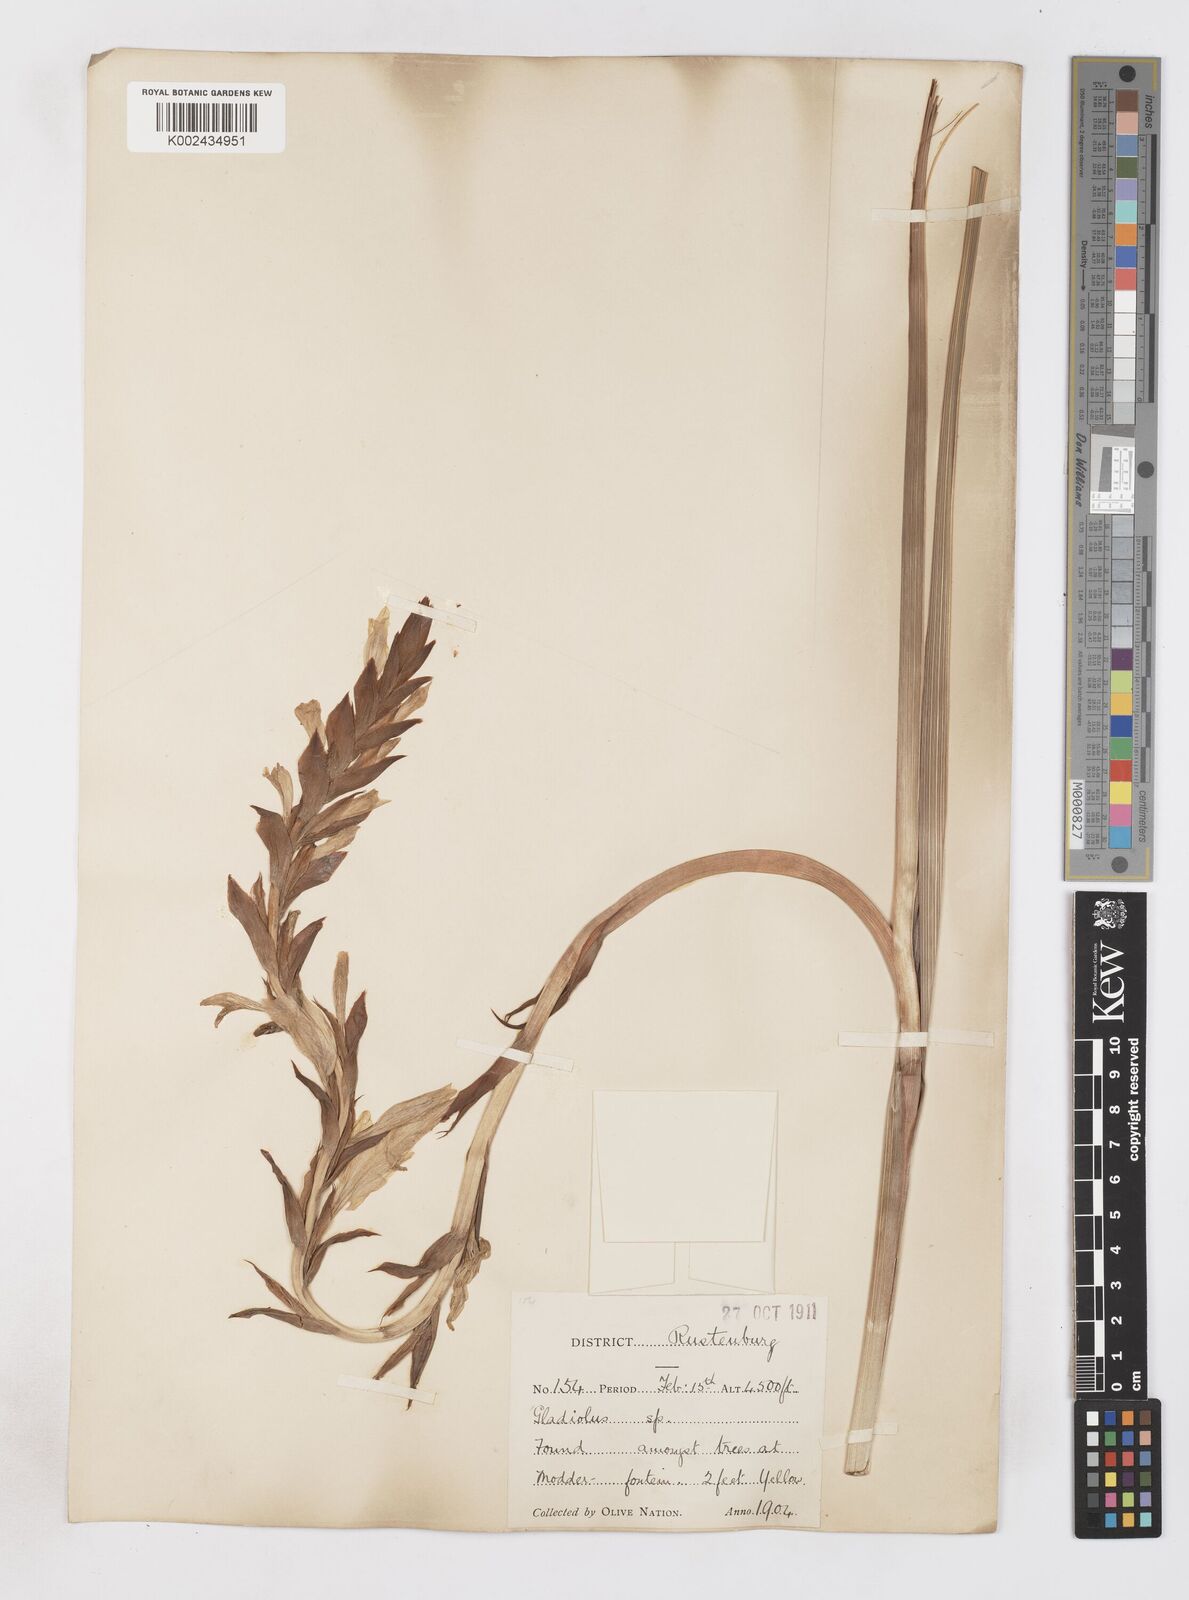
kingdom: Plantae
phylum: Tracheophyta
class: Liliopsida
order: Asparagales
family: Iridaceae
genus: Gladiolus
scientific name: Gladiolus sericeovillosus
